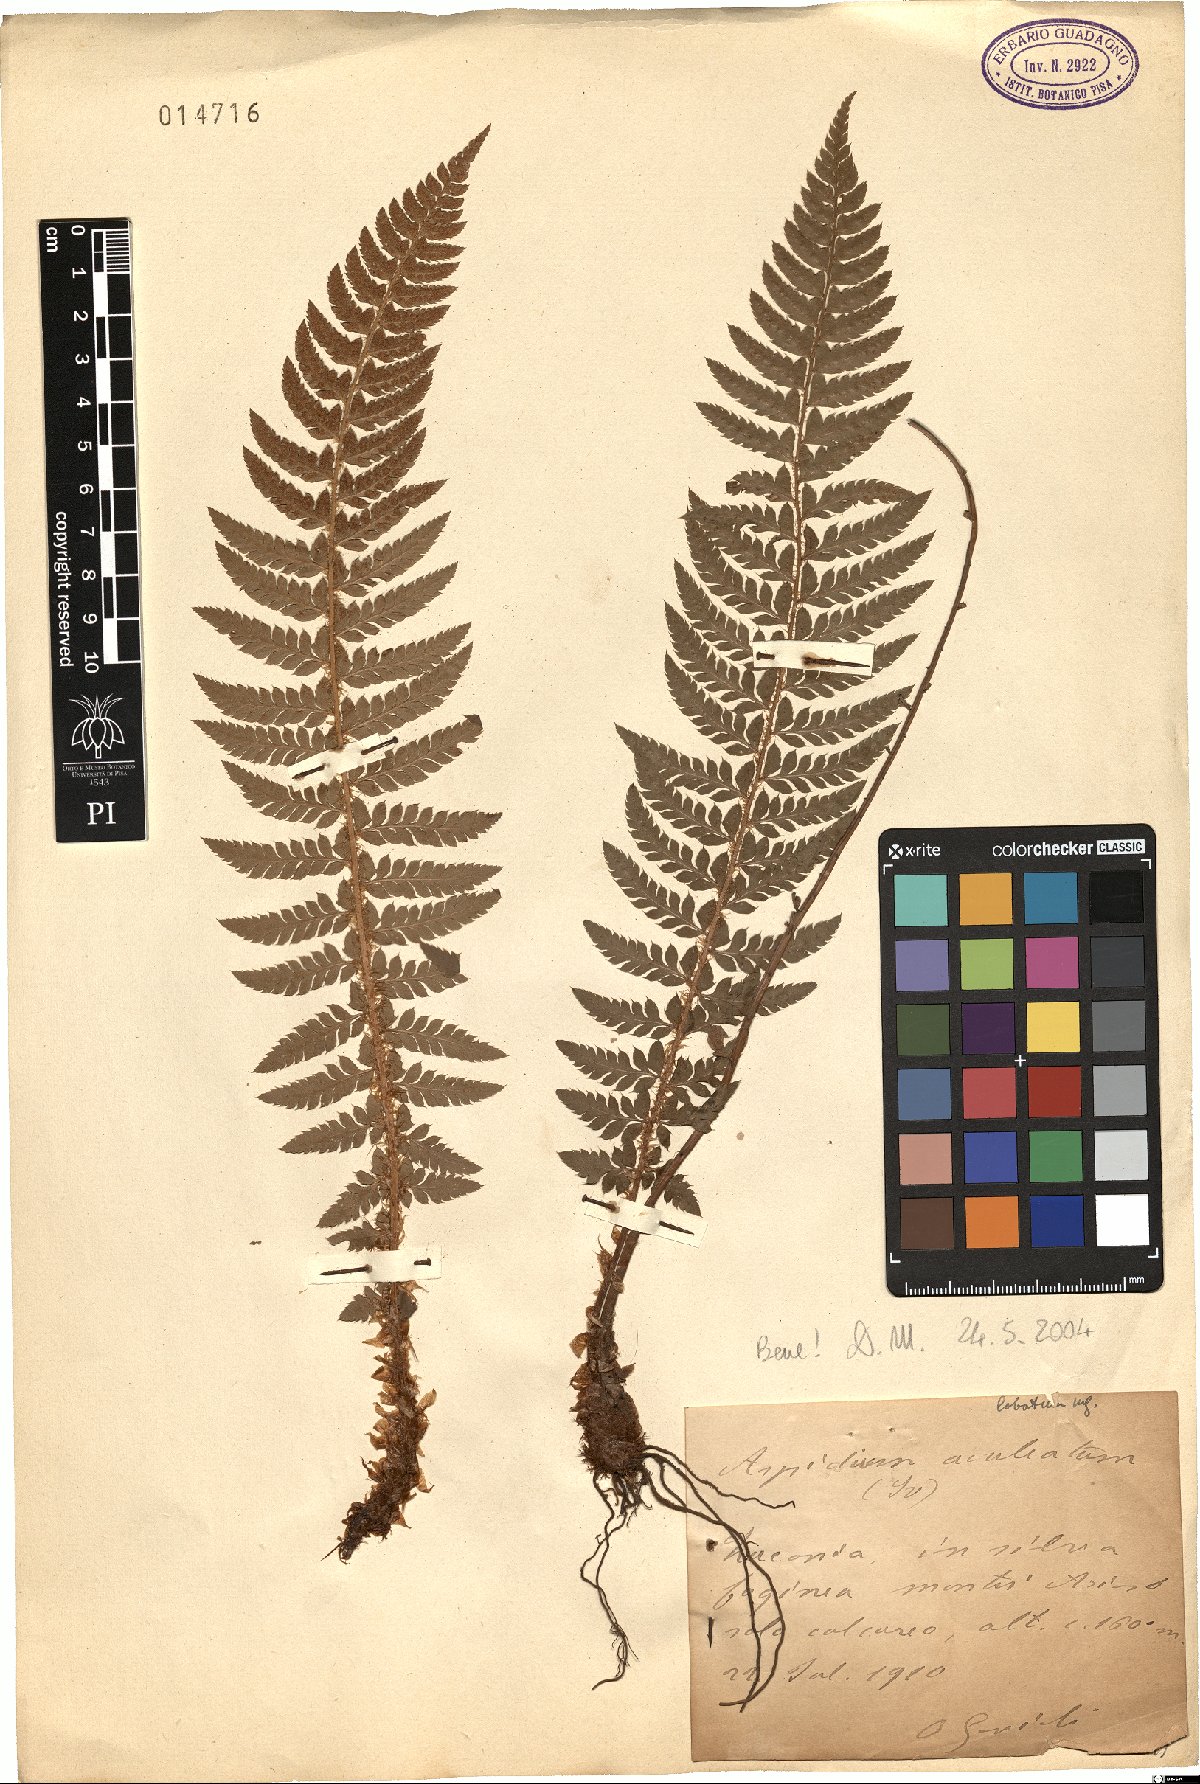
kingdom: Plantae
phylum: Tracheophyta
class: Polypodiopsida
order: Polypodiales
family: Dryopteridaceae
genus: Polystichum
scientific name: Polystichum aculeatum
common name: Hard shield-fern
